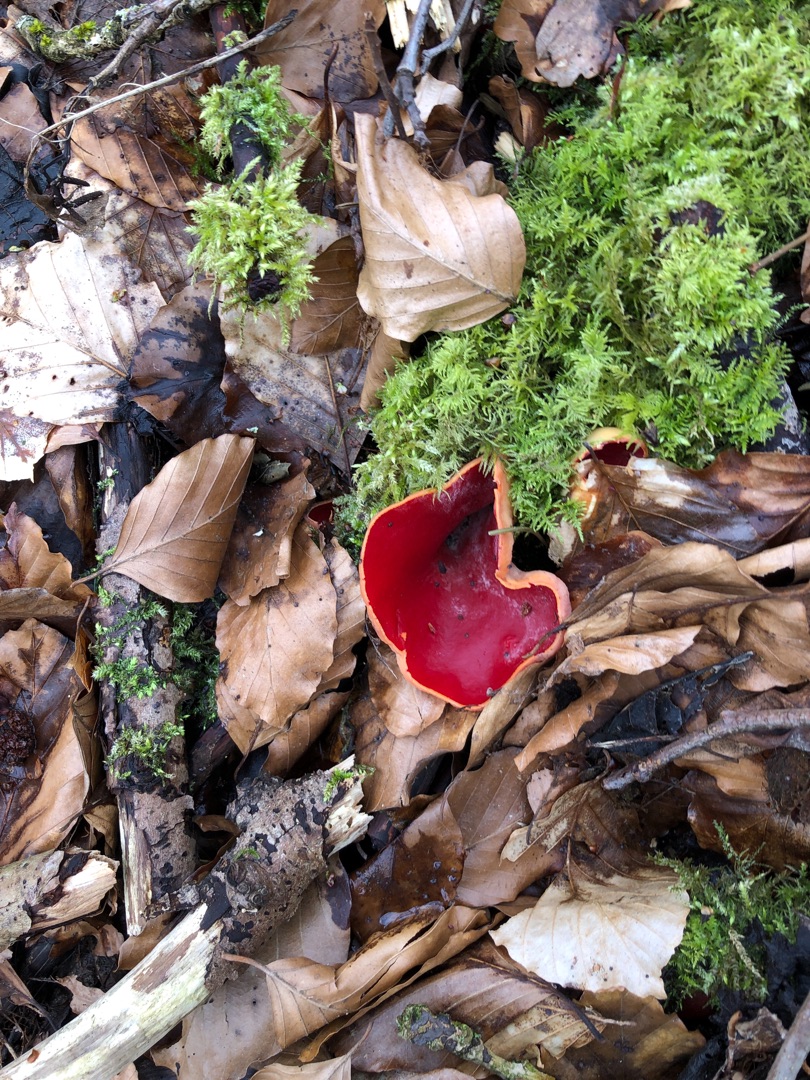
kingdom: Fungi
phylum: Ascomycota
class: Pezizomycetes
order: Pezizales
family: Sarcoscyphaceae
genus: Sarcoscypha
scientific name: Sarcoscypha
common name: Pragtbæger
